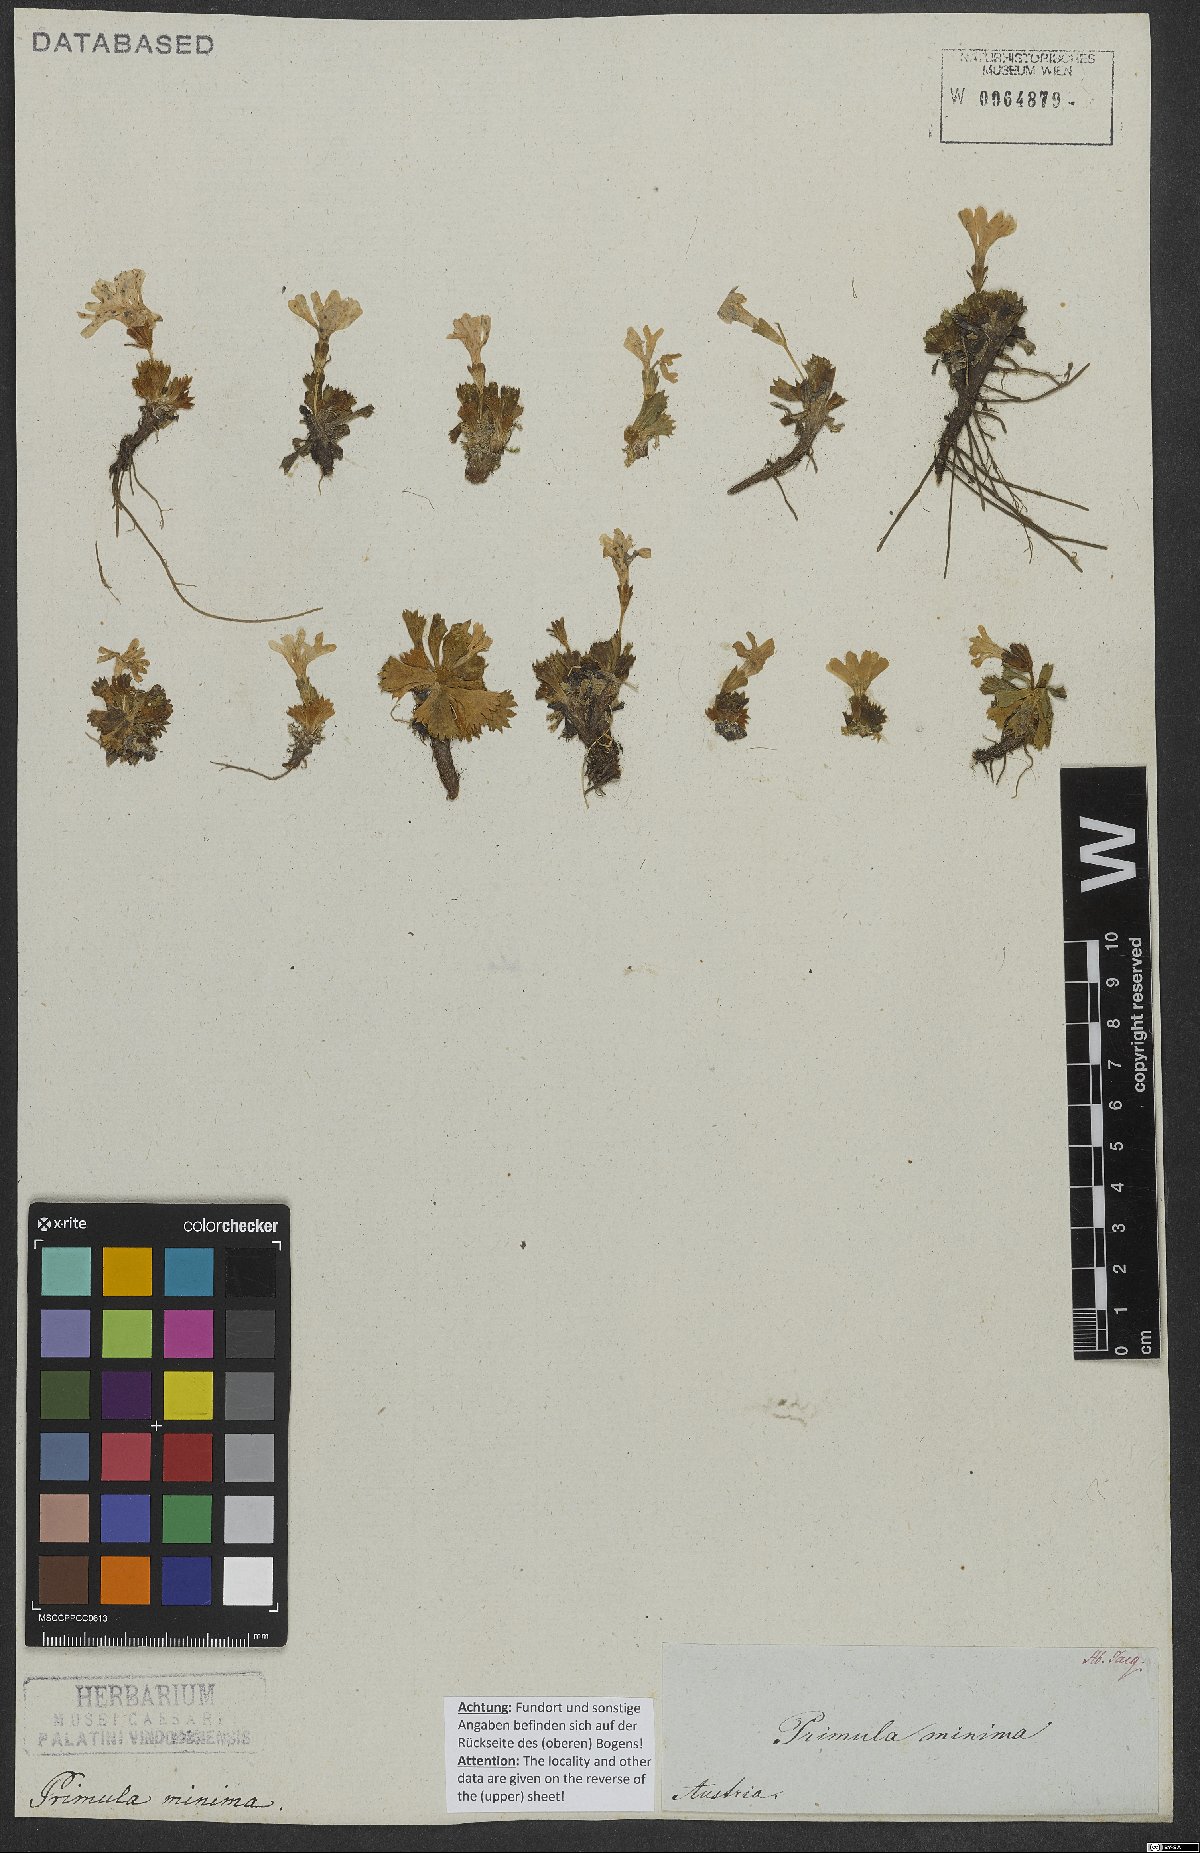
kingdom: Plantae
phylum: Tracheophyta
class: Magnoliopsida
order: Ericales
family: Primulaceae
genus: Primula
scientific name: Primula minima
